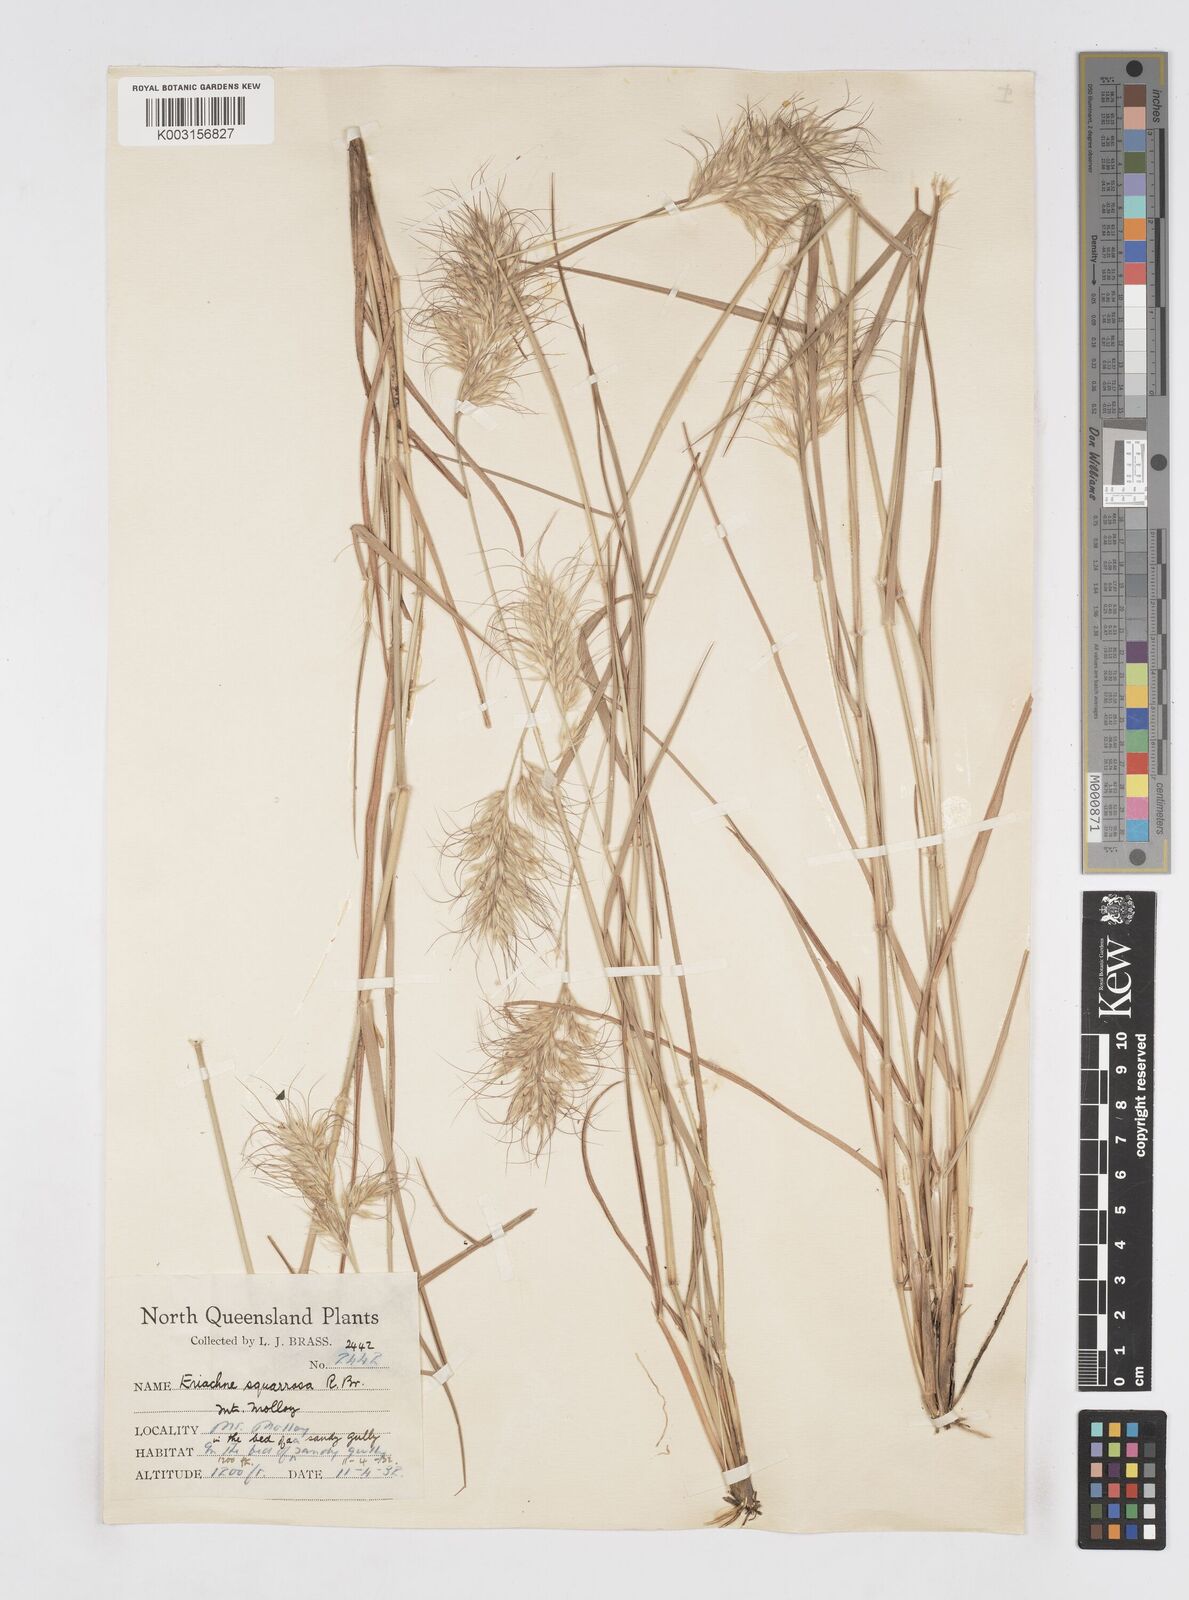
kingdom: Plantae
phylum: Tracheophyta
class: Liliopsida
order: Poales
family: Poaceae
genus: Eriachne
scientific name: Eriachne squarrosa
